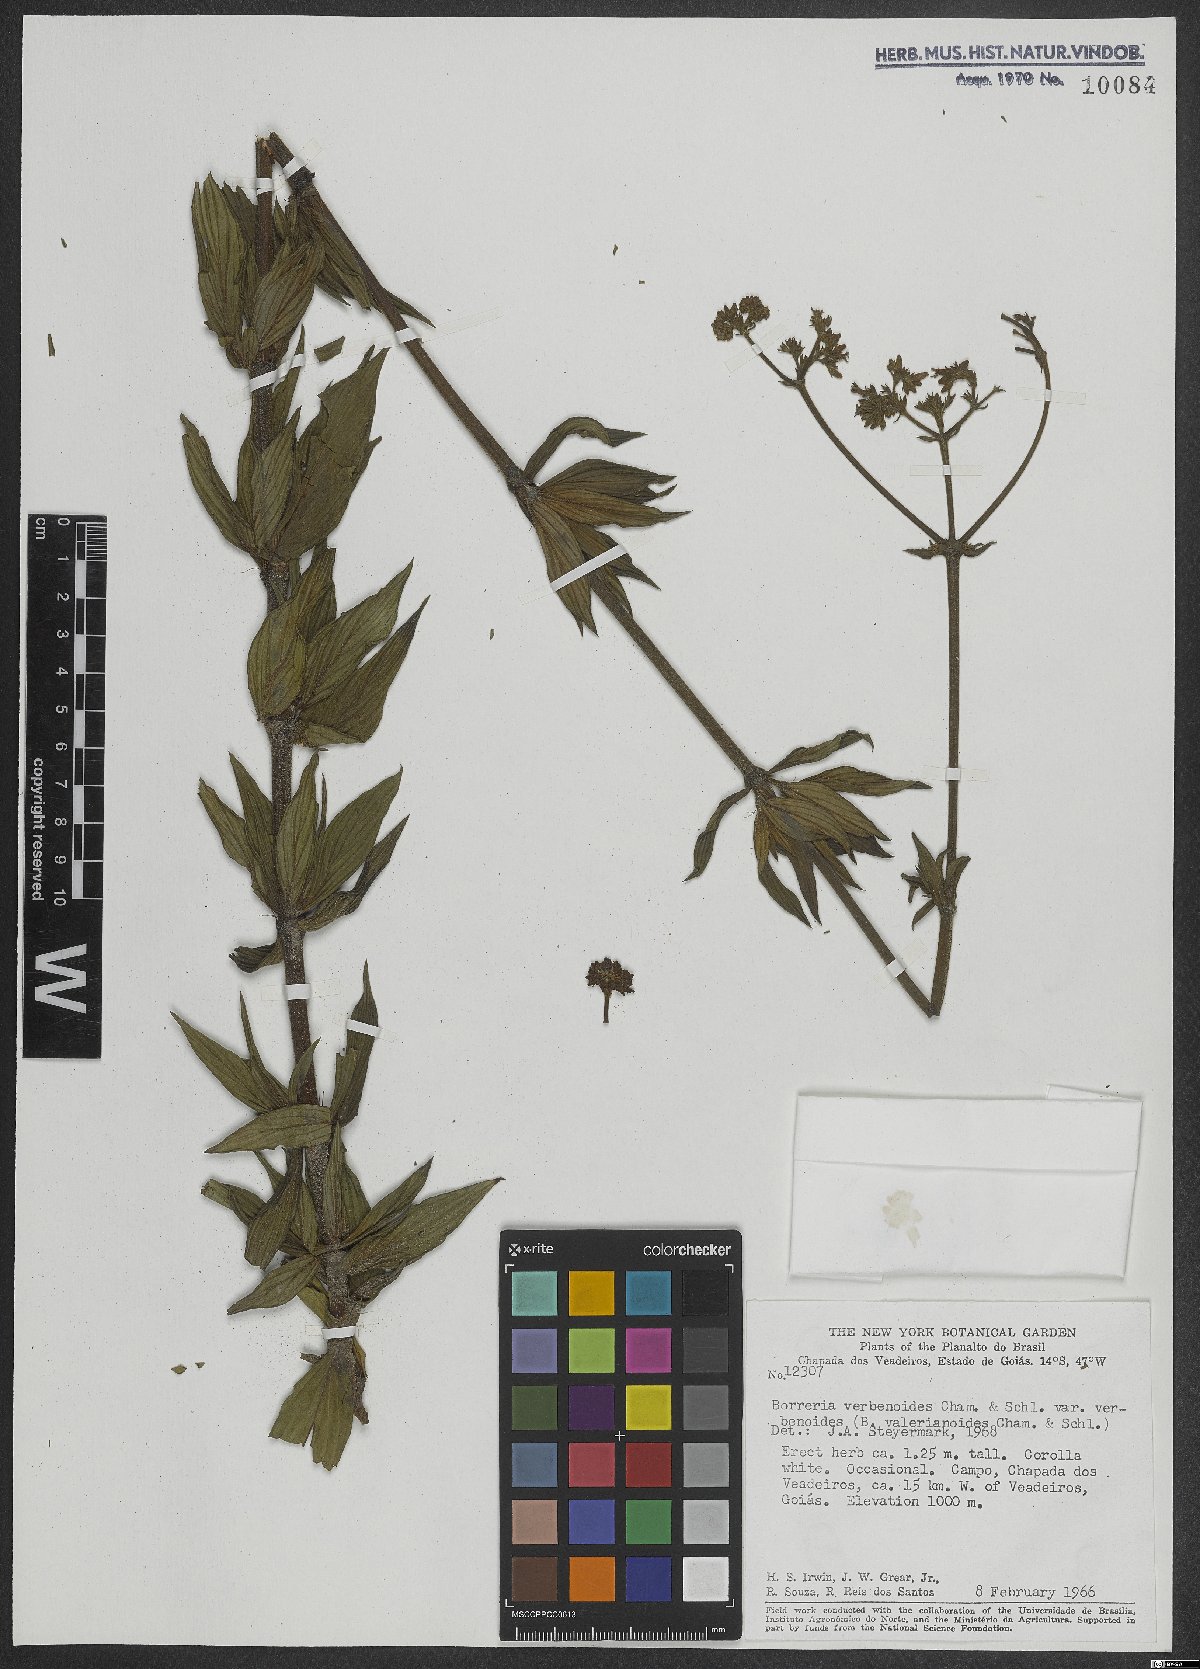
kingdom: Plantae
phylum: Tracheophyta
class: Magnoliopsida
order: Gentianales
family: Rubiaceae
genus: Spermacoce
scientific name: Spermacoce verbenoides
